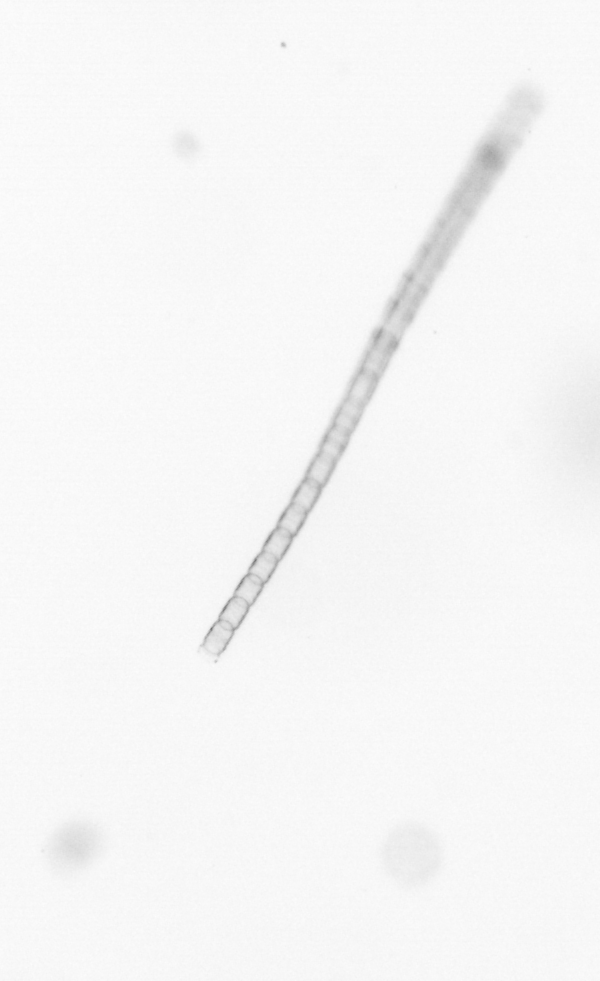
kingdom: Chromista
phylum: Ochrophyta
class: Bacillariophyceae
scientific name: Bacillariophyceae
